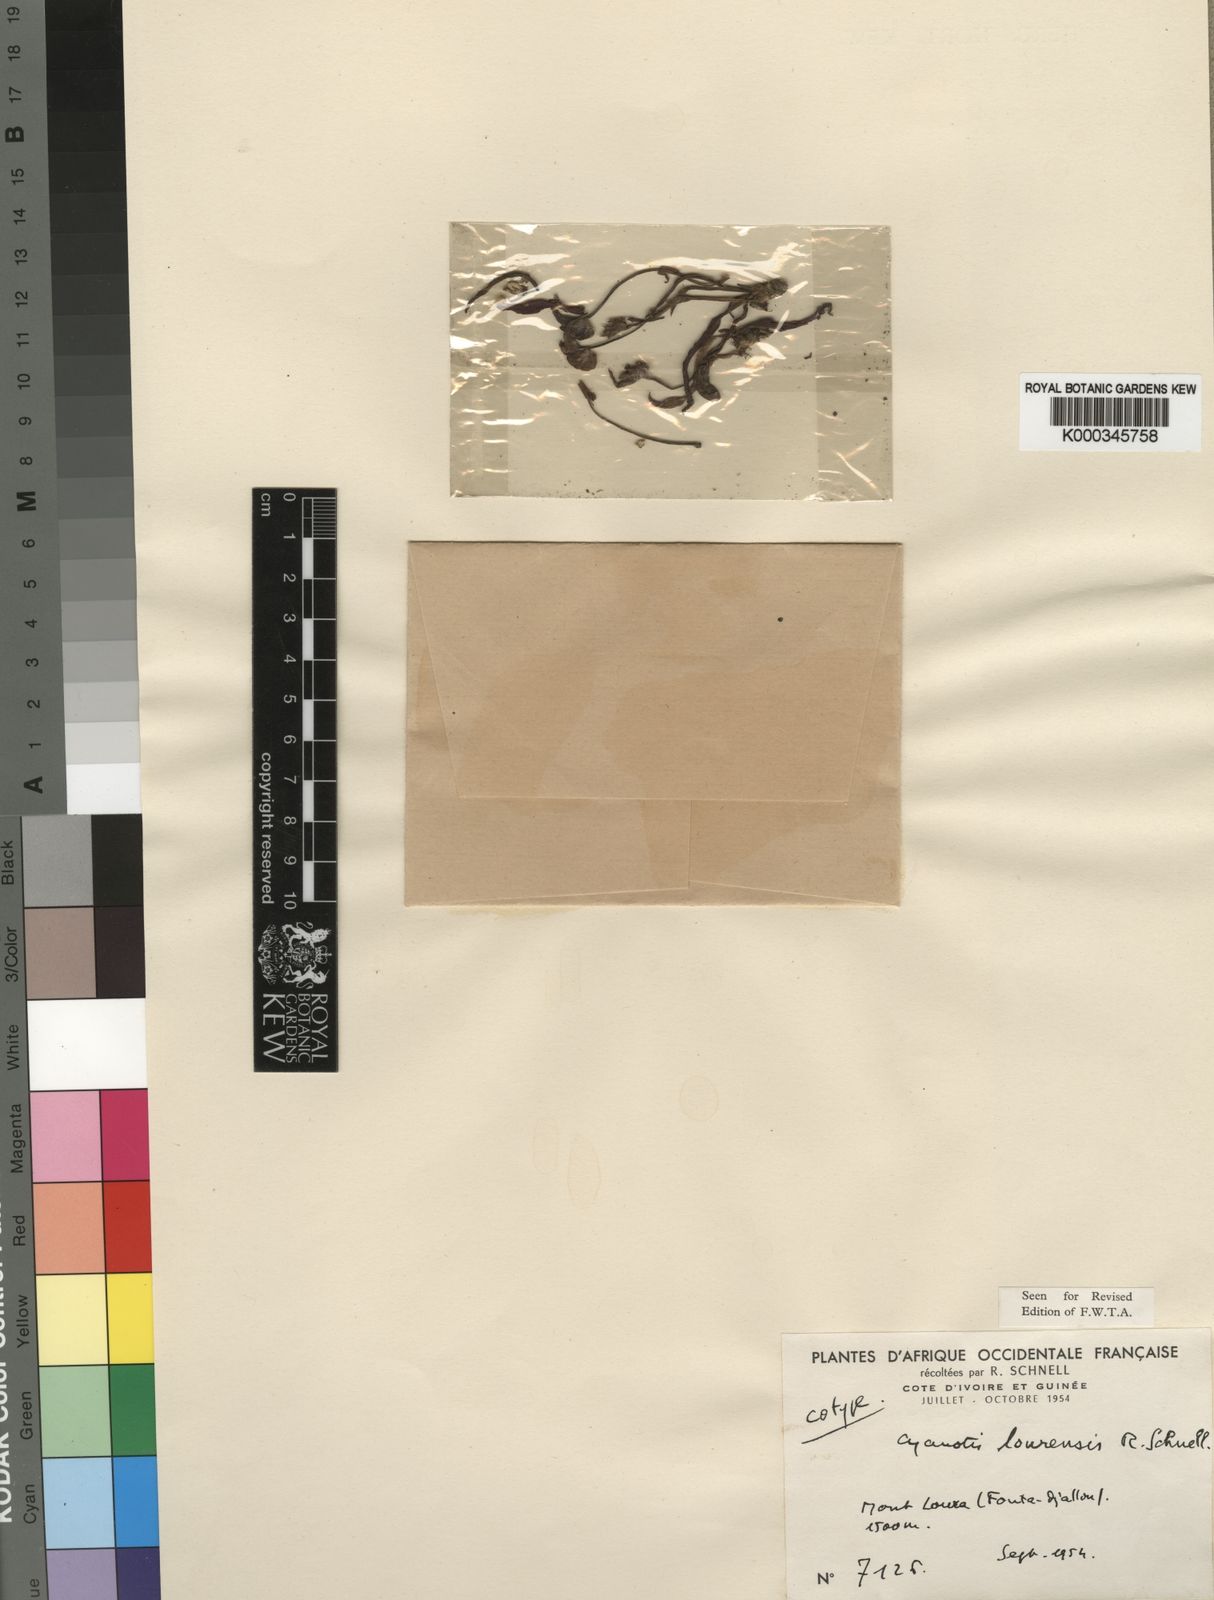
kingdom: Plantae
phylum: Tracheophyta
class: Liliopsida
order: Commelinales
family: Commelinaceae
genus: Cyanotis
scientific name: Cyanotis lourensis
